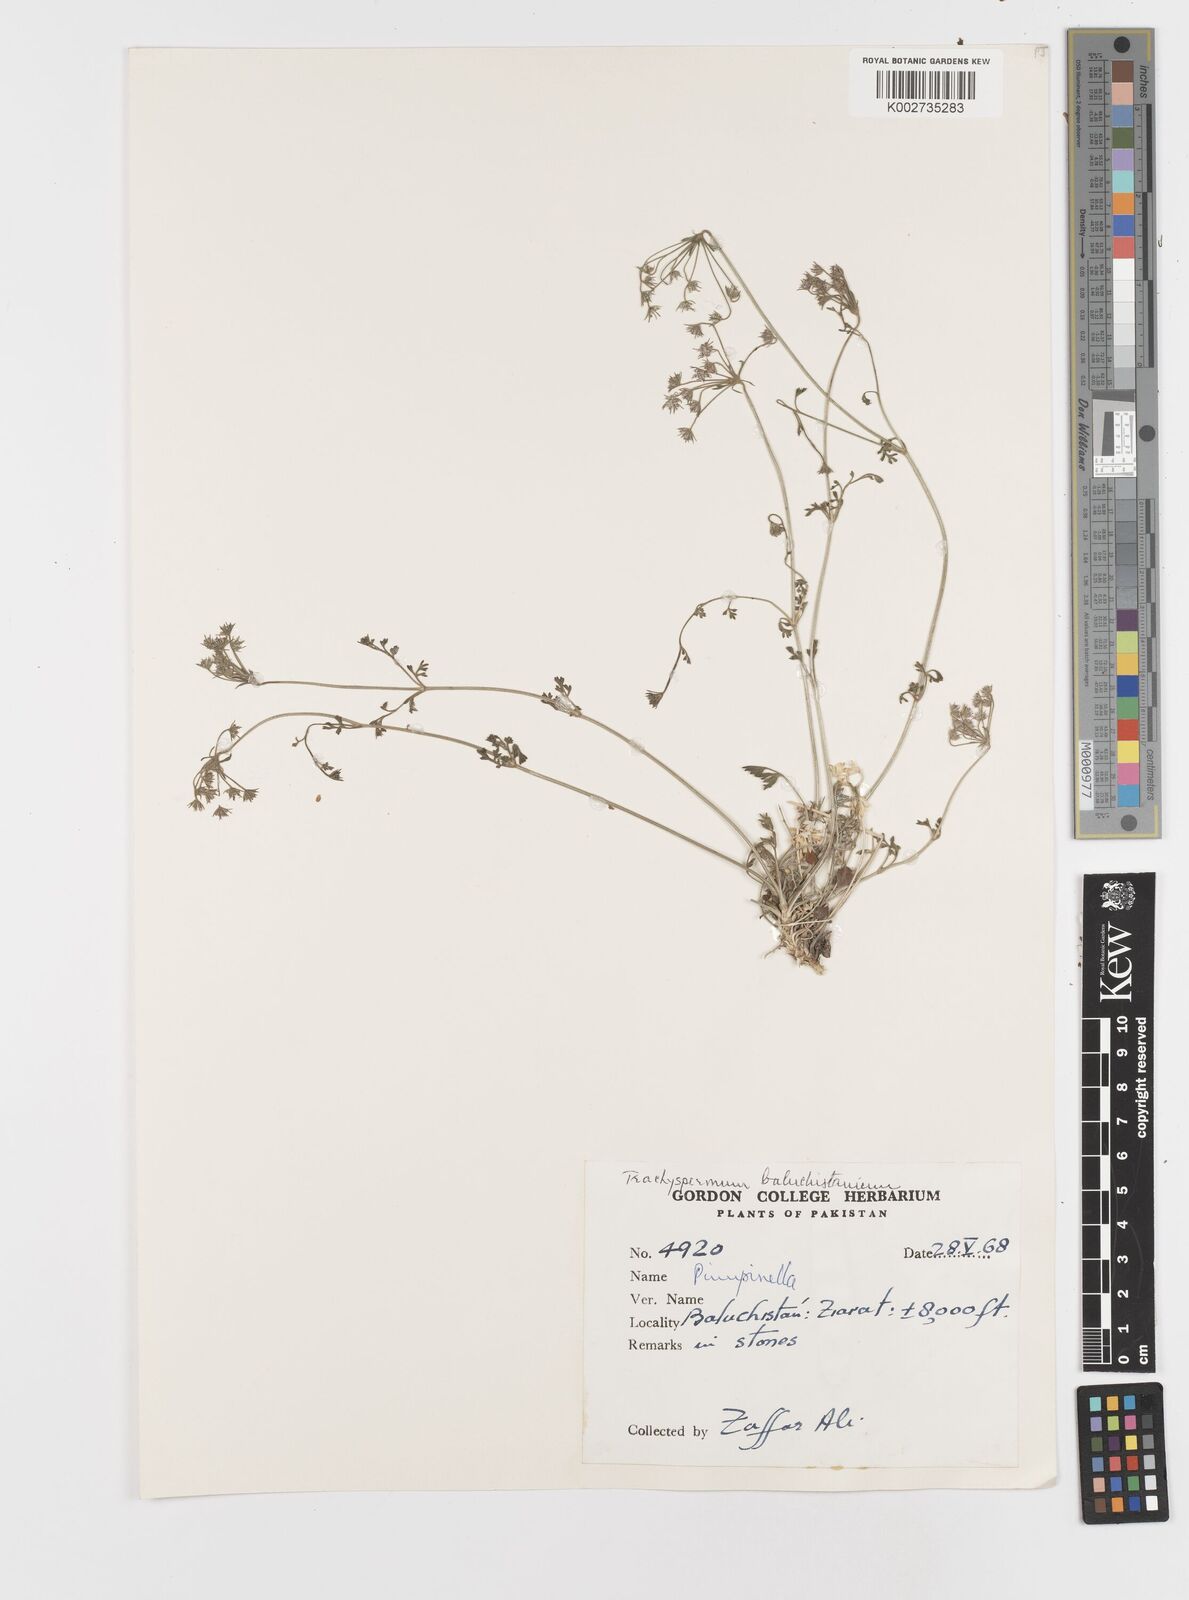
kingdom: Plantae
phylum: Tracheophyta
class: Magnoliopsida
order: Apiales
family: Apiaceae
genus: Trachyspermum
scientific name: Trachyspermum baluchistanicum
